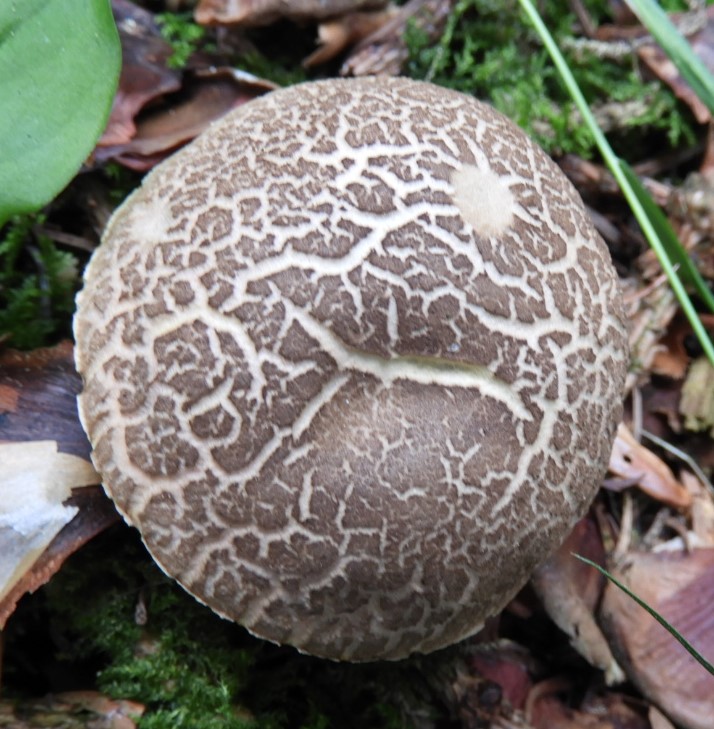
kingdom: Fungi
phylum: Basidiomycota
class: Agaricomycetes
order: Boletales
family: Boletaceae
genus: Xerocomellus
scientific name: Xerocomellus chrysenteron
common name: rødsprukken rørhat
